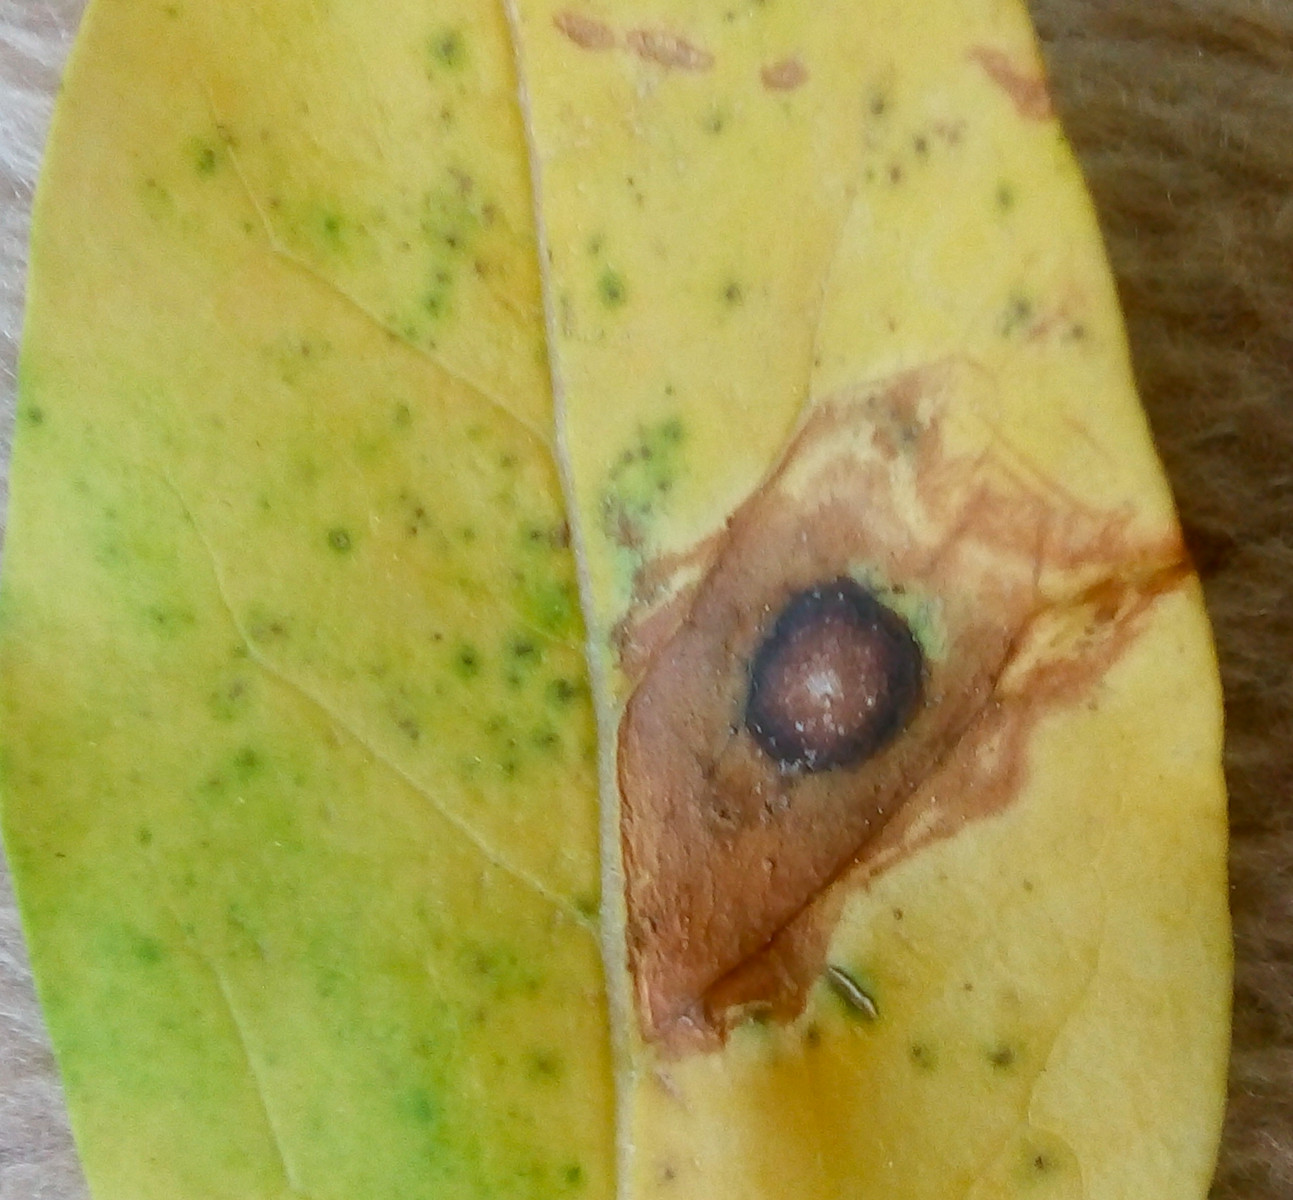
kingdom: Fungi
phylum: Ascomycota
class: Leotiomycetes
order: Helotiales
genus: Thedgonia
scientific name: Thedgonia ligustrina
